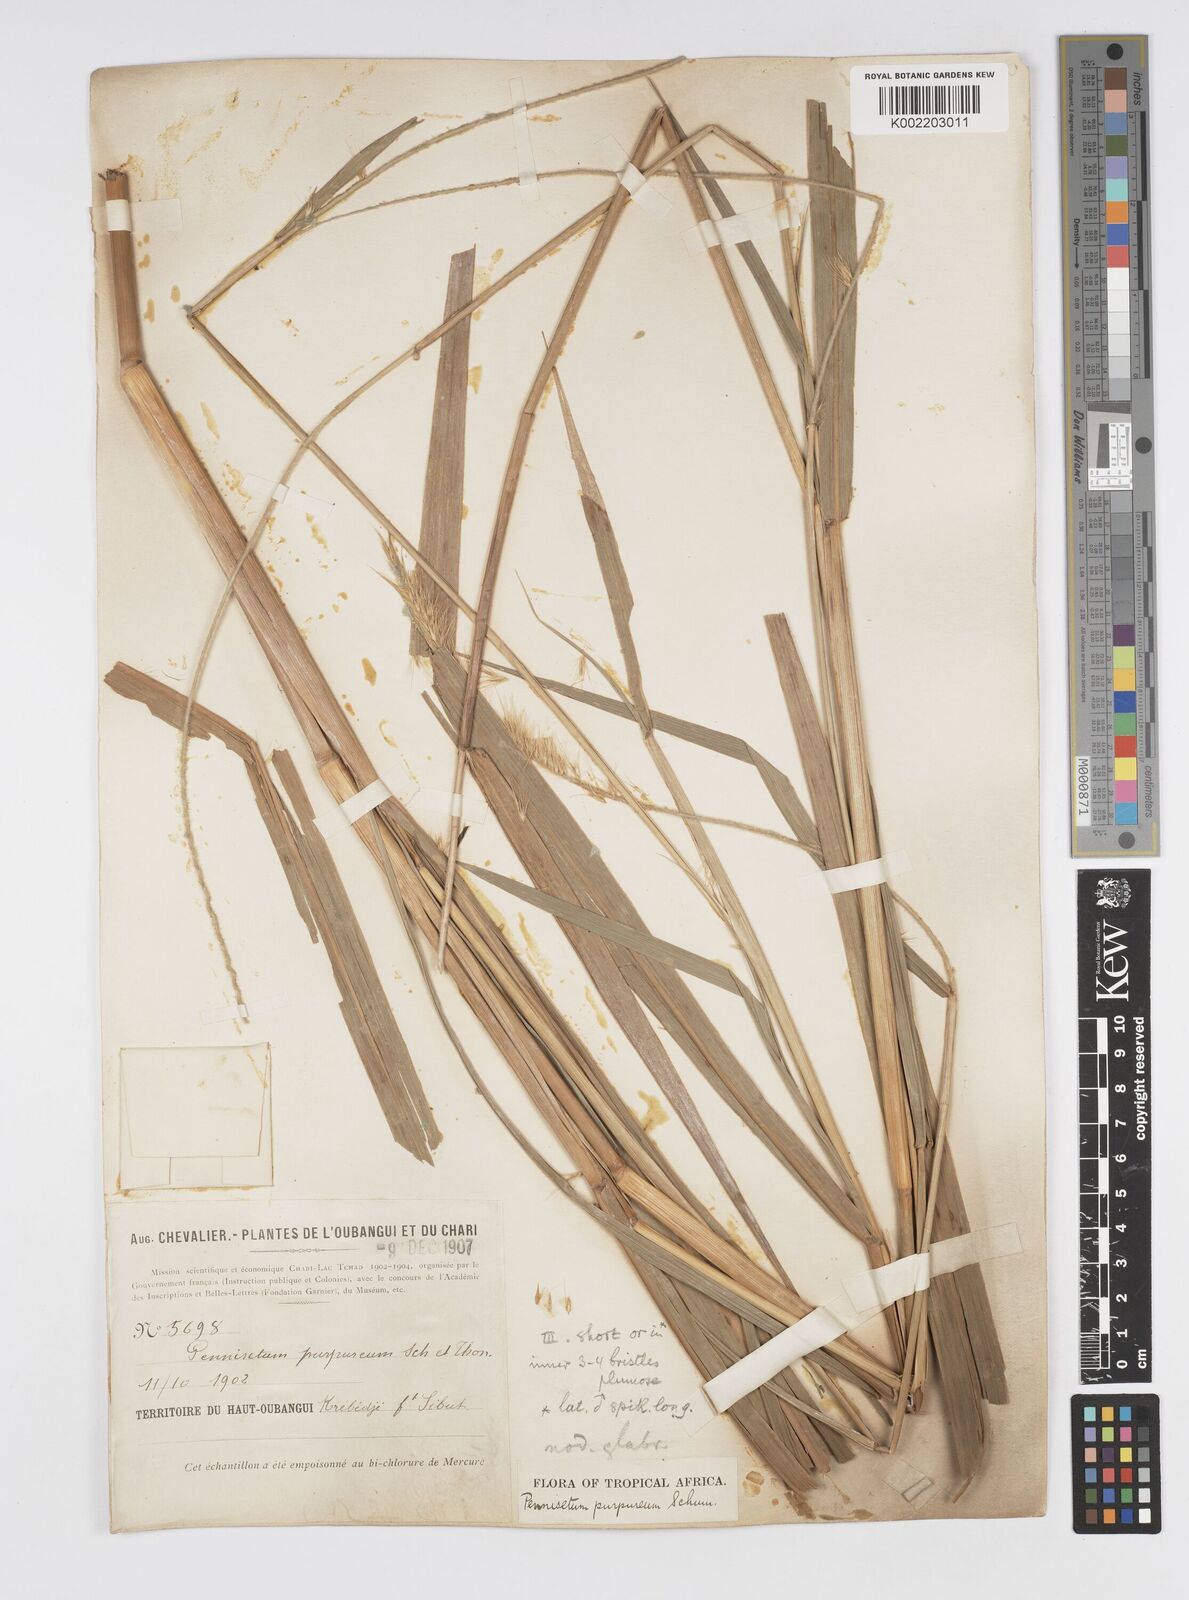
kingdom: Plantae
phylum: Tracheophyta
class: Liliopsida
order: Poales
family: Poaceae
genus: Cenchrus
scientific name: Cenchrus purpureus
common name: Elephant grass
